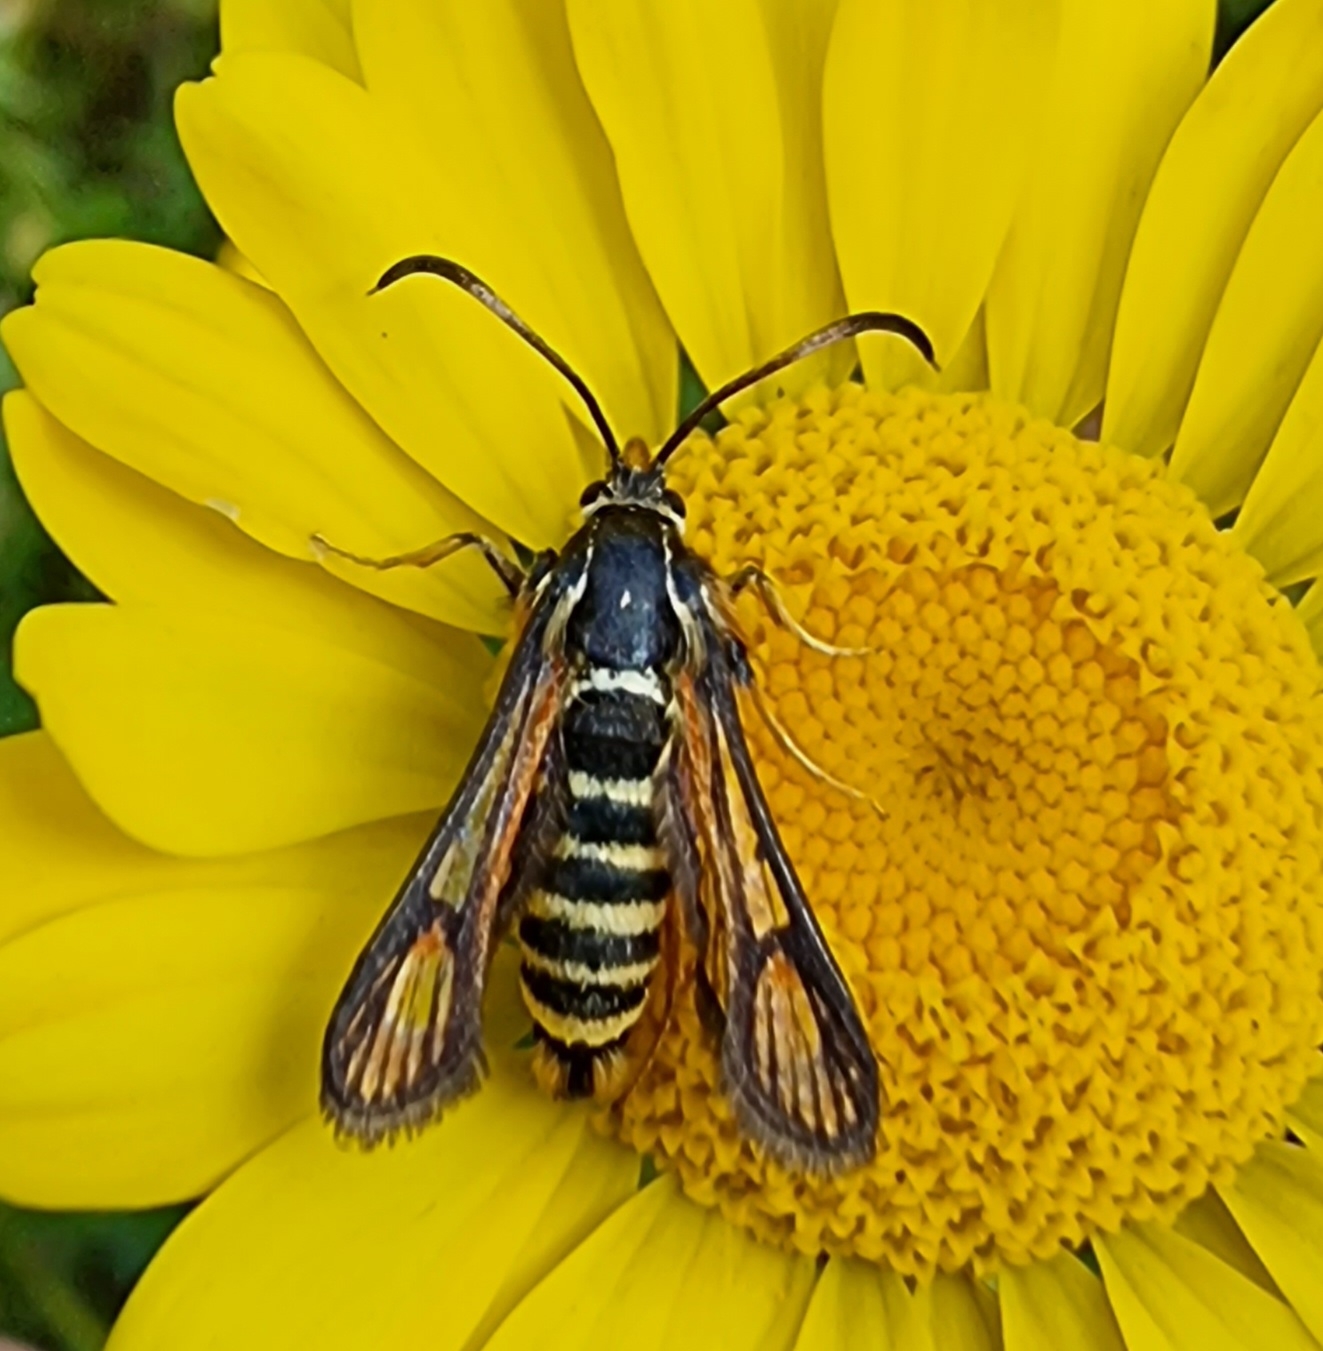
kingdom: Animalia
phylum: Arthropoda
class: Insecta
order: Lepidoptera
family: Sesiidae
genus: Bembecia
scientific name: Bembecia ichneumoniformis
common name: Snyltehveps-glassværmer
